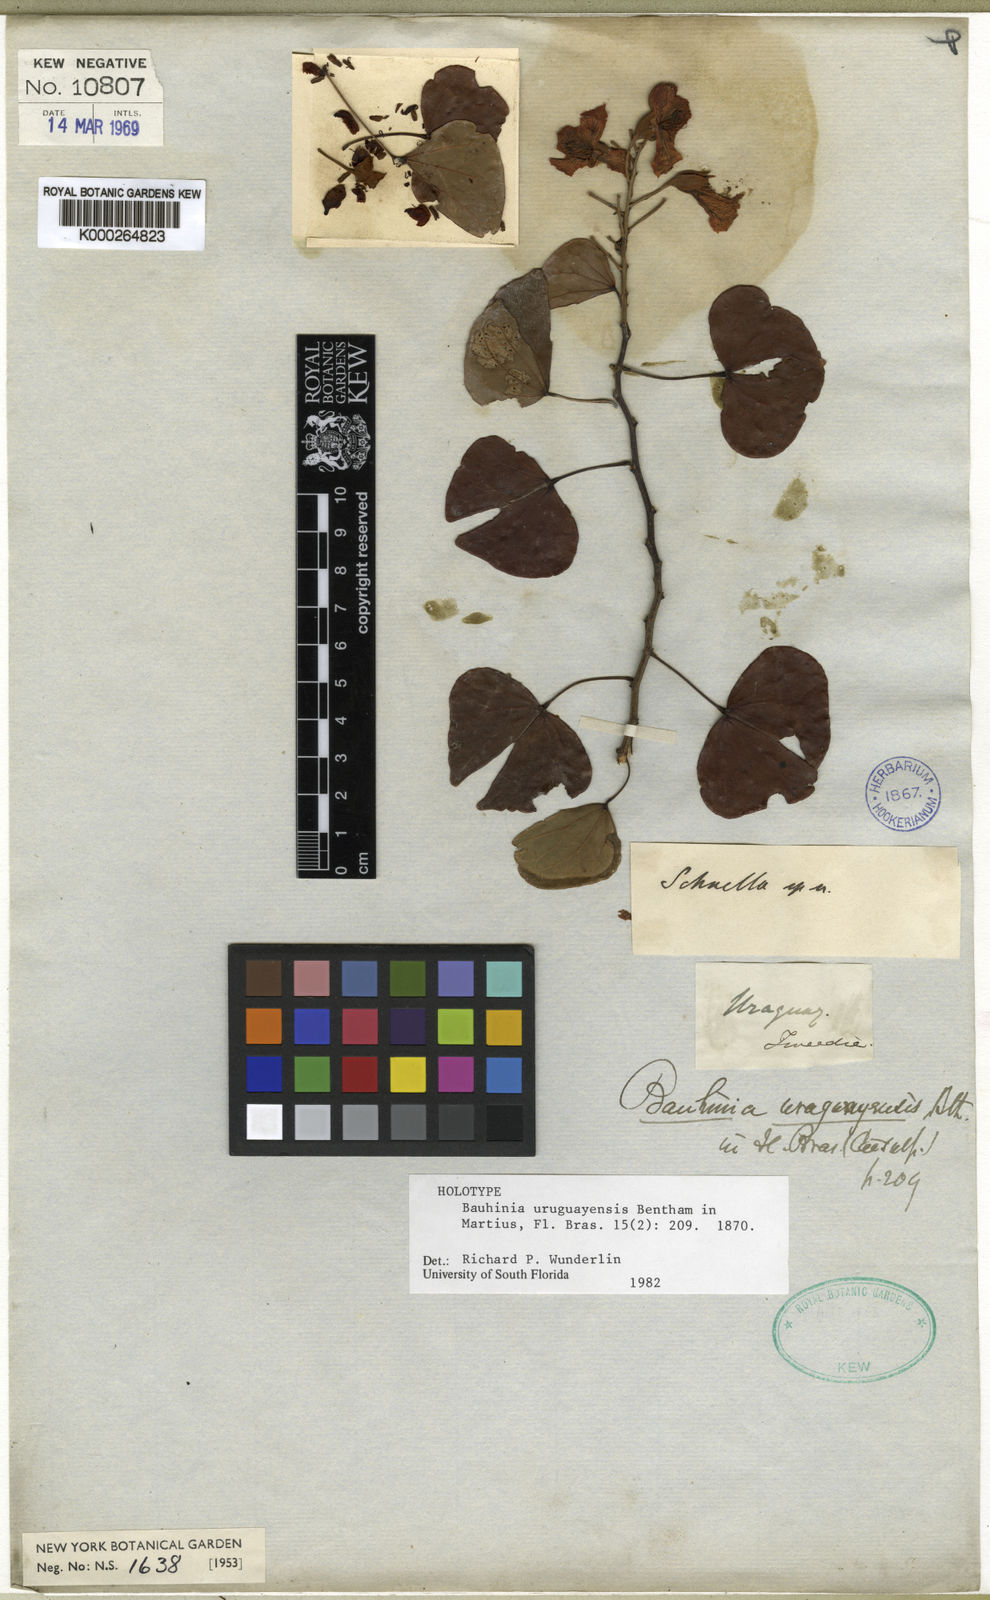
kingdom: Plantae
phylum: Tracheophyta
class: Magnoliopsida
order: Fabales
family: Fabaceae
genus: Bauhinia
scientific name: Bauhinia uruguayensis
